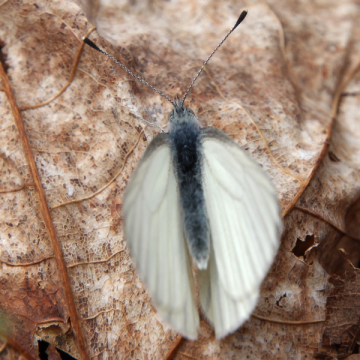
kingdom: Animalia
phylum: Arthropoda
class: Insecta
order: Lepidoptera
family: Pieridae
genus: Pieris
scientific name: Pieris oleracea
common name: Mustard White
